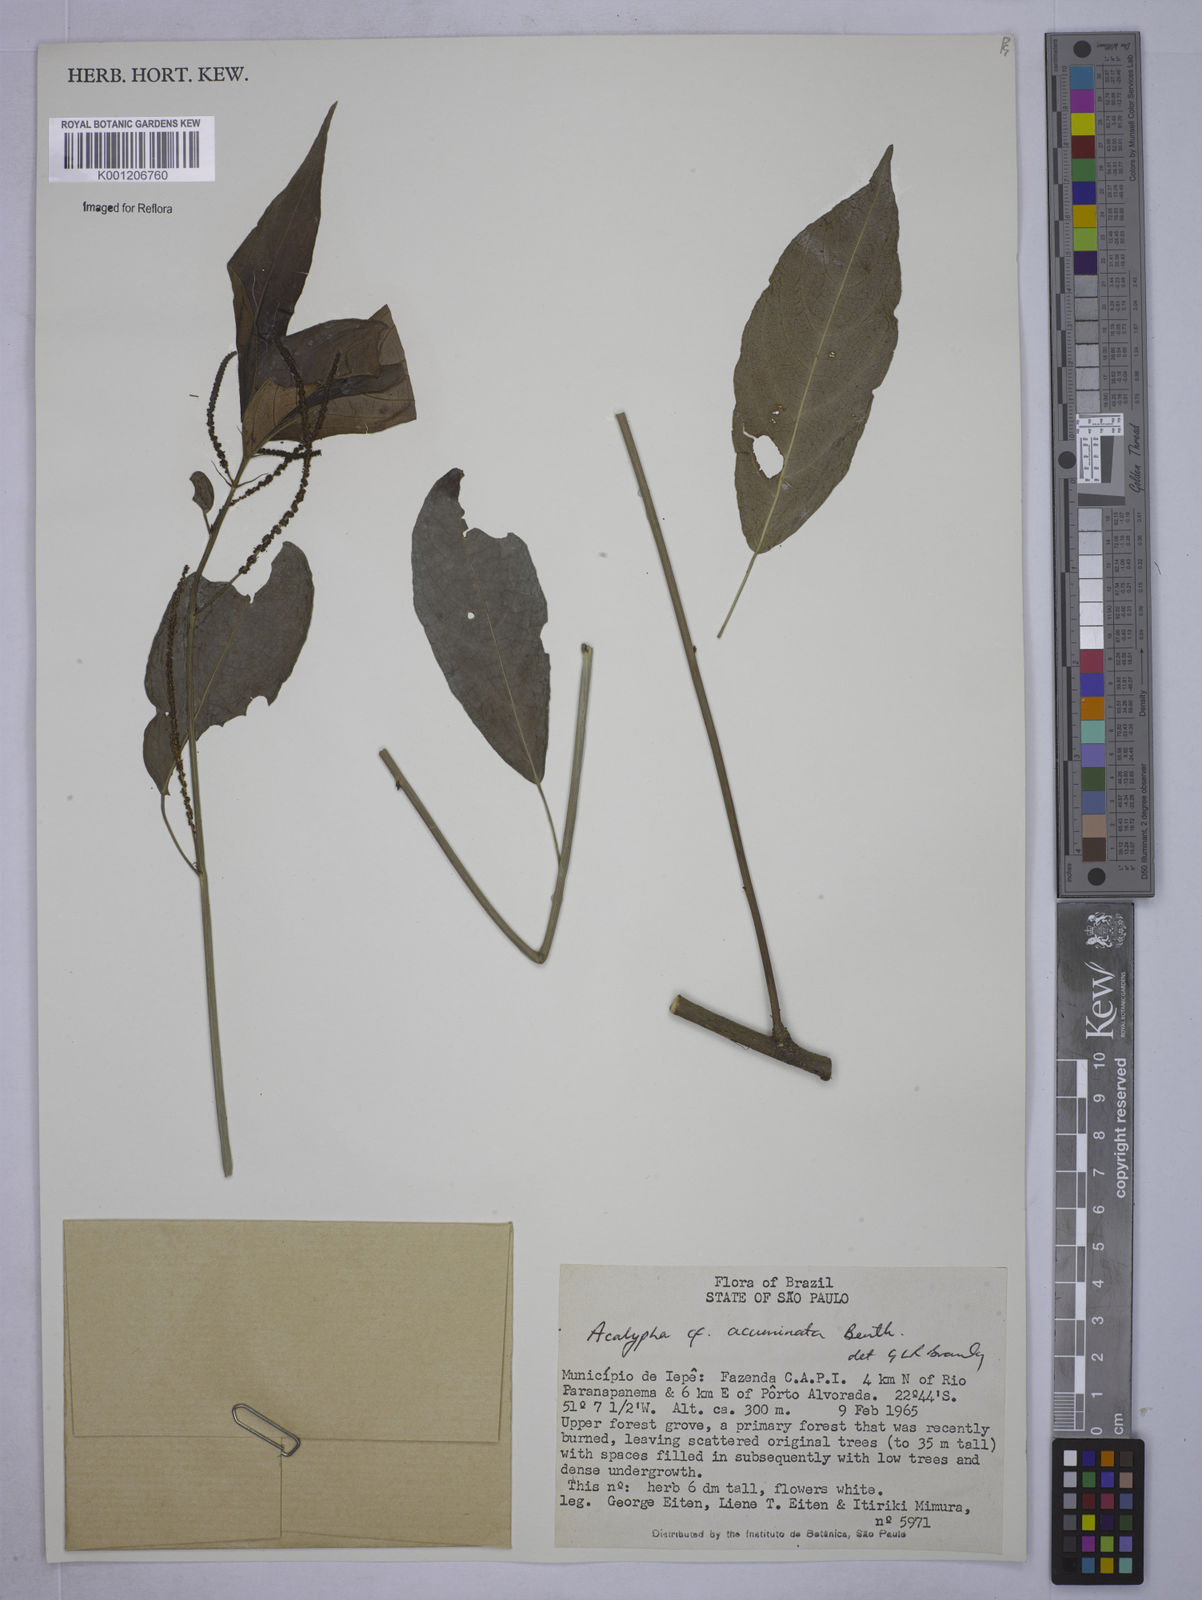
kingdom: Plantae
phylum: Tracheophyta
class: Magnoliopsida
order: Malpighiales
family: Euphorbiaceae
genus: Acalypha
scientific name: Acalypha acuminata
